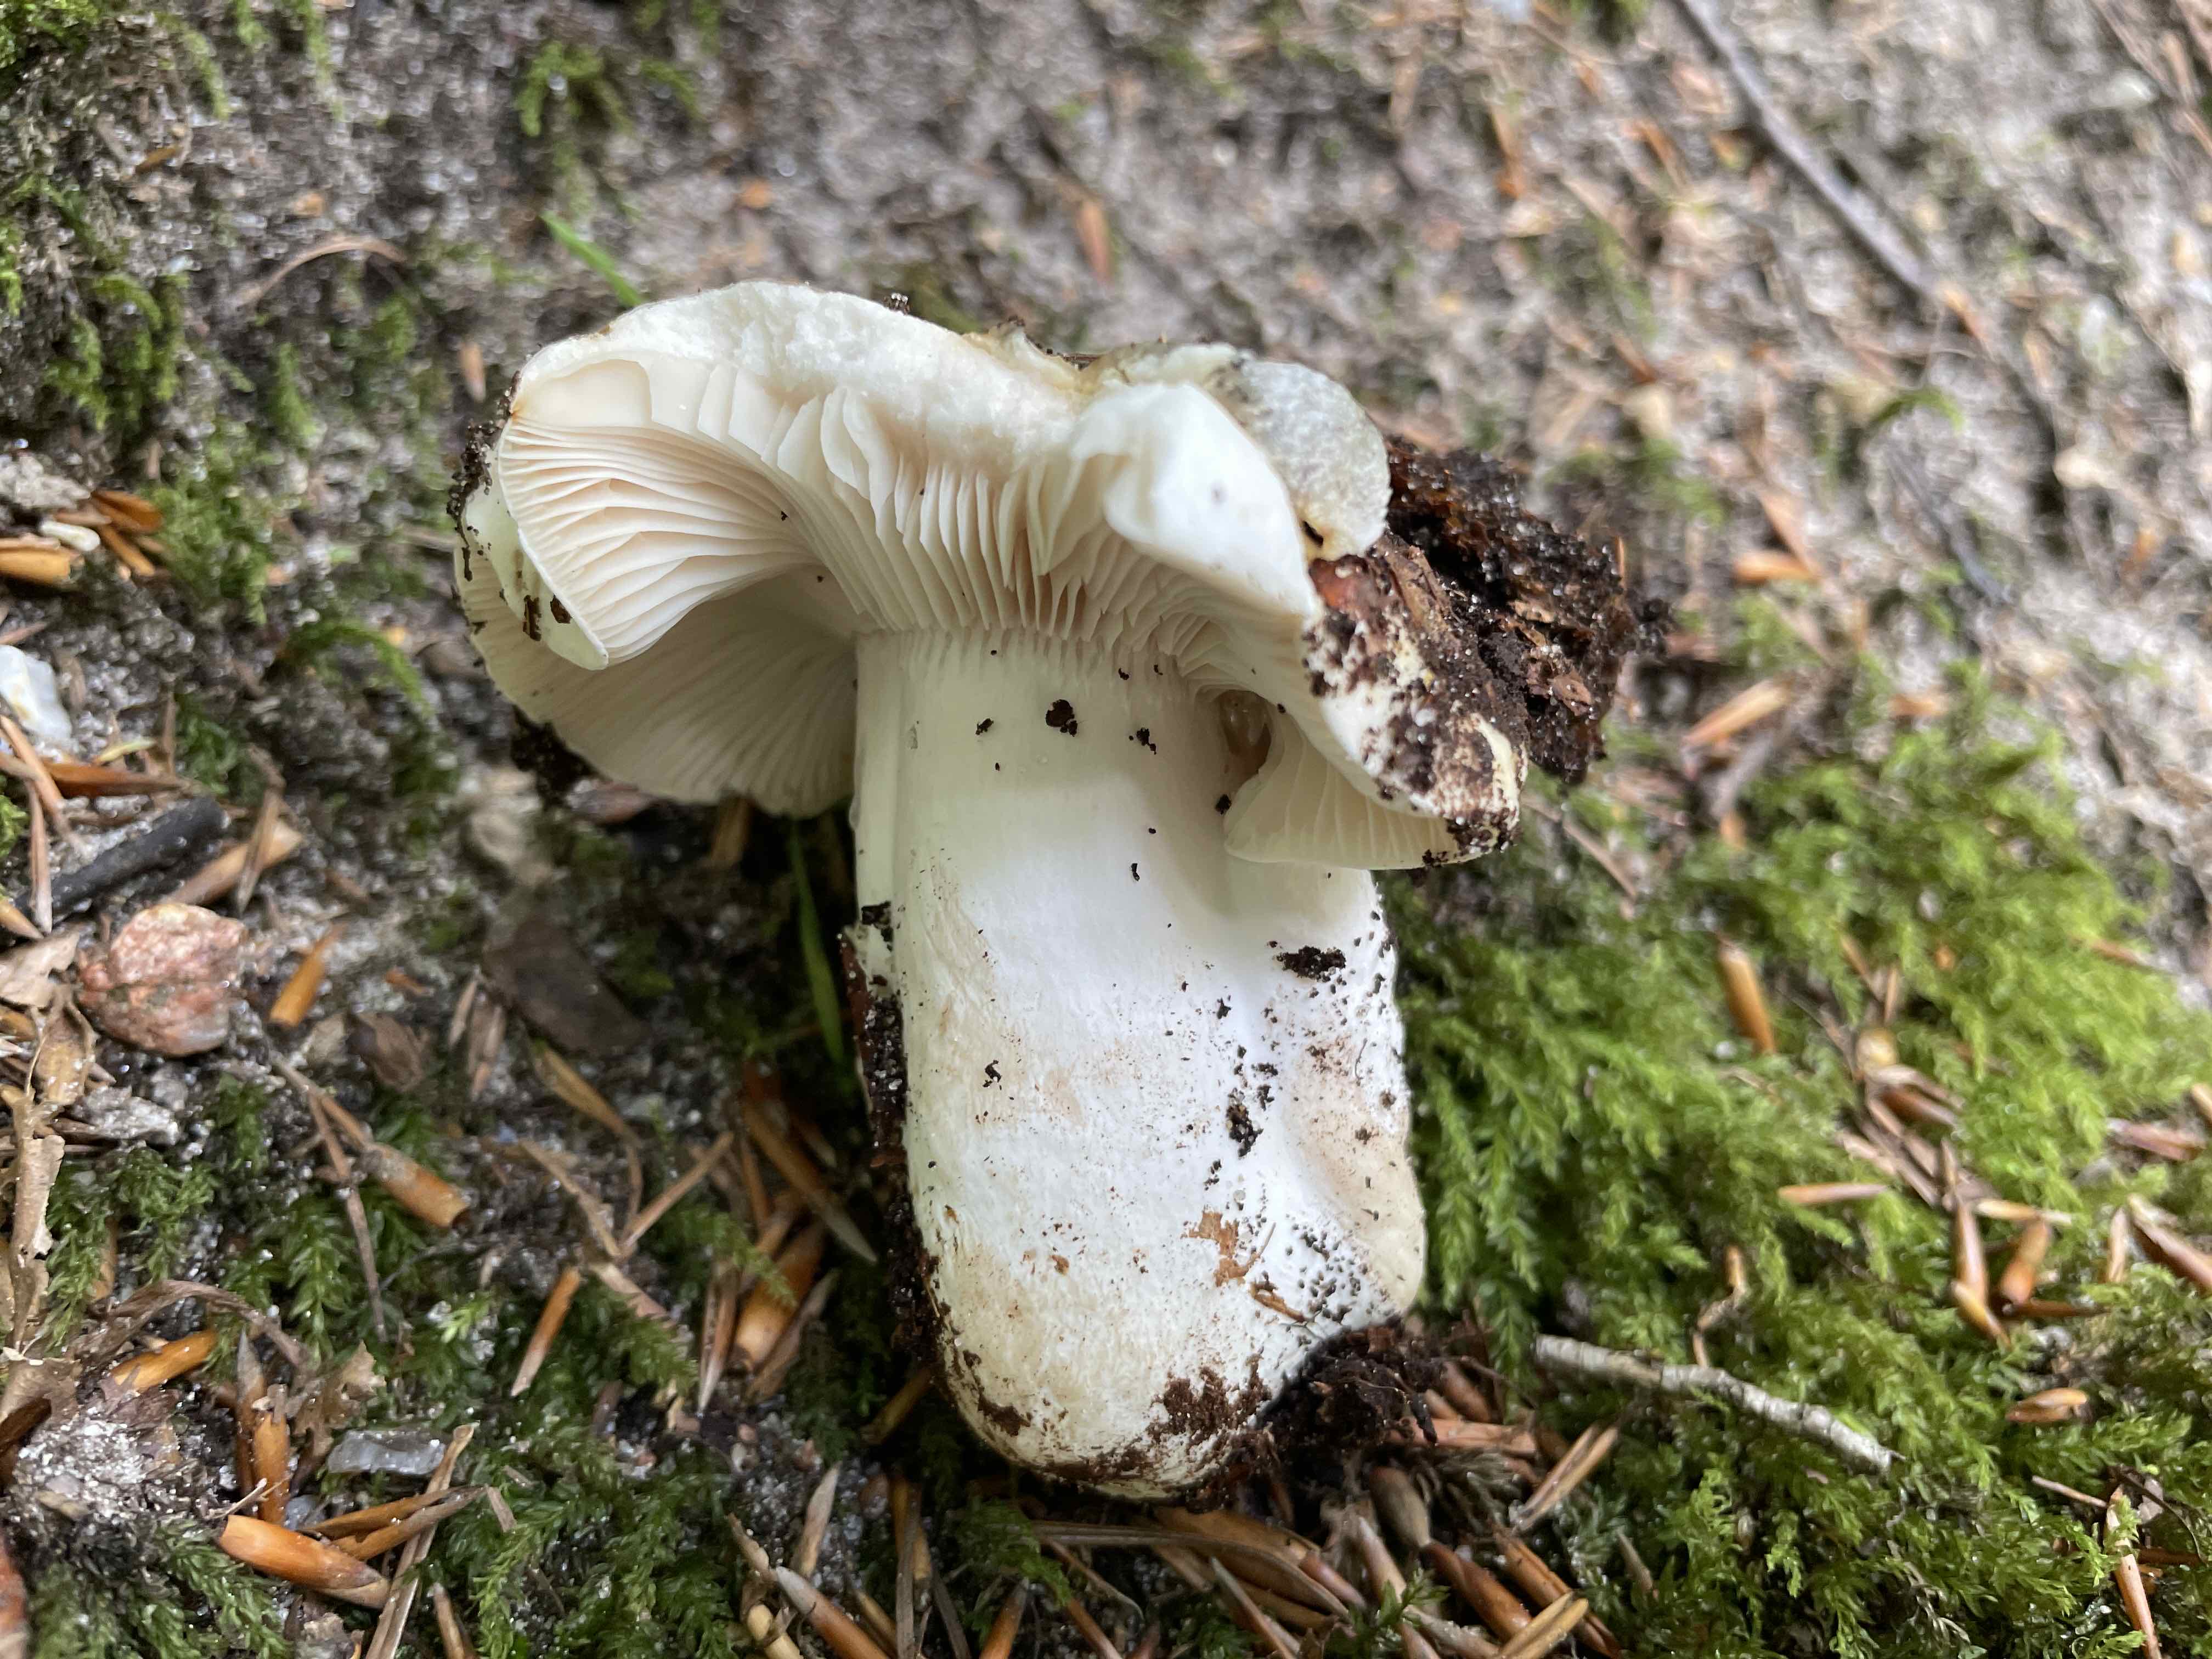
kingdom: Fungi
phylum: Basidiomycota
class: Agaricomycetes
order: Russulales
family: Russulaceae
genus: Russula
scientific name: Russula delica
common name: almindelig tragt-skørhat
